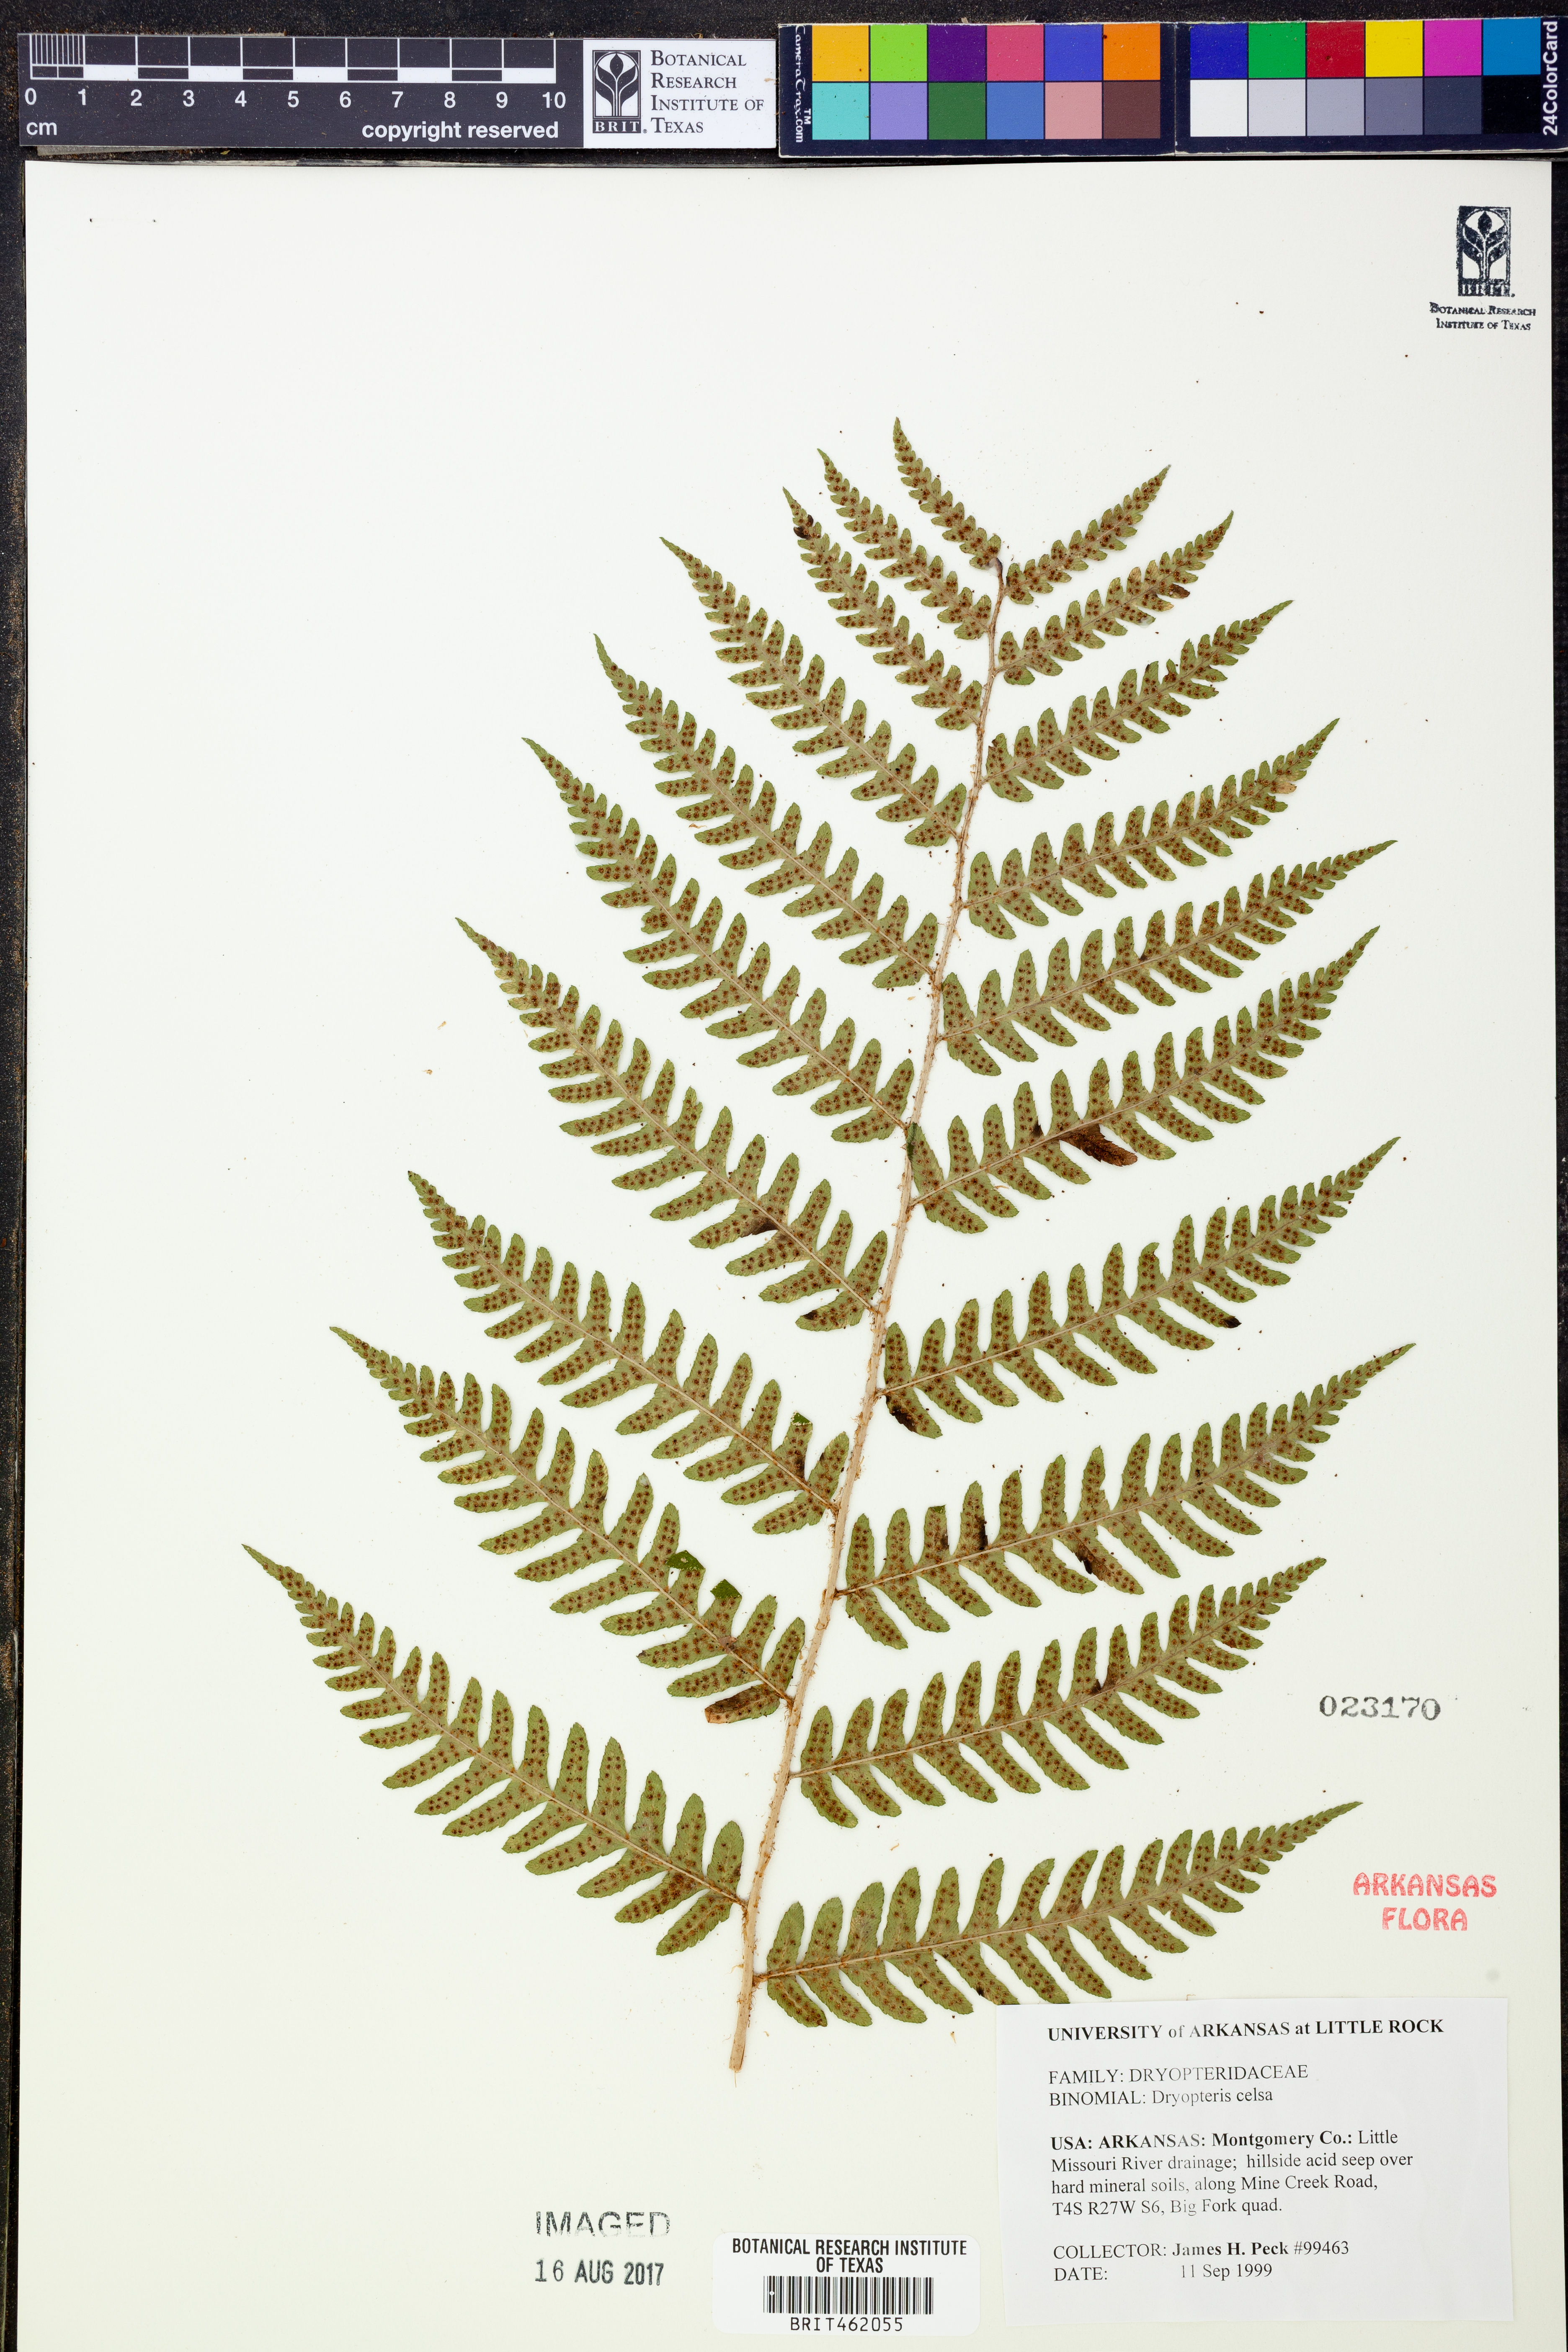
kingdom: Plantae
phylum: Tracheophyta
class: Polypodiopsida
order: Polypodiales
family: Dryopteridaceae
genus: Dryopteris
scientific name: Dryopteris celsa
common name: Log fern
